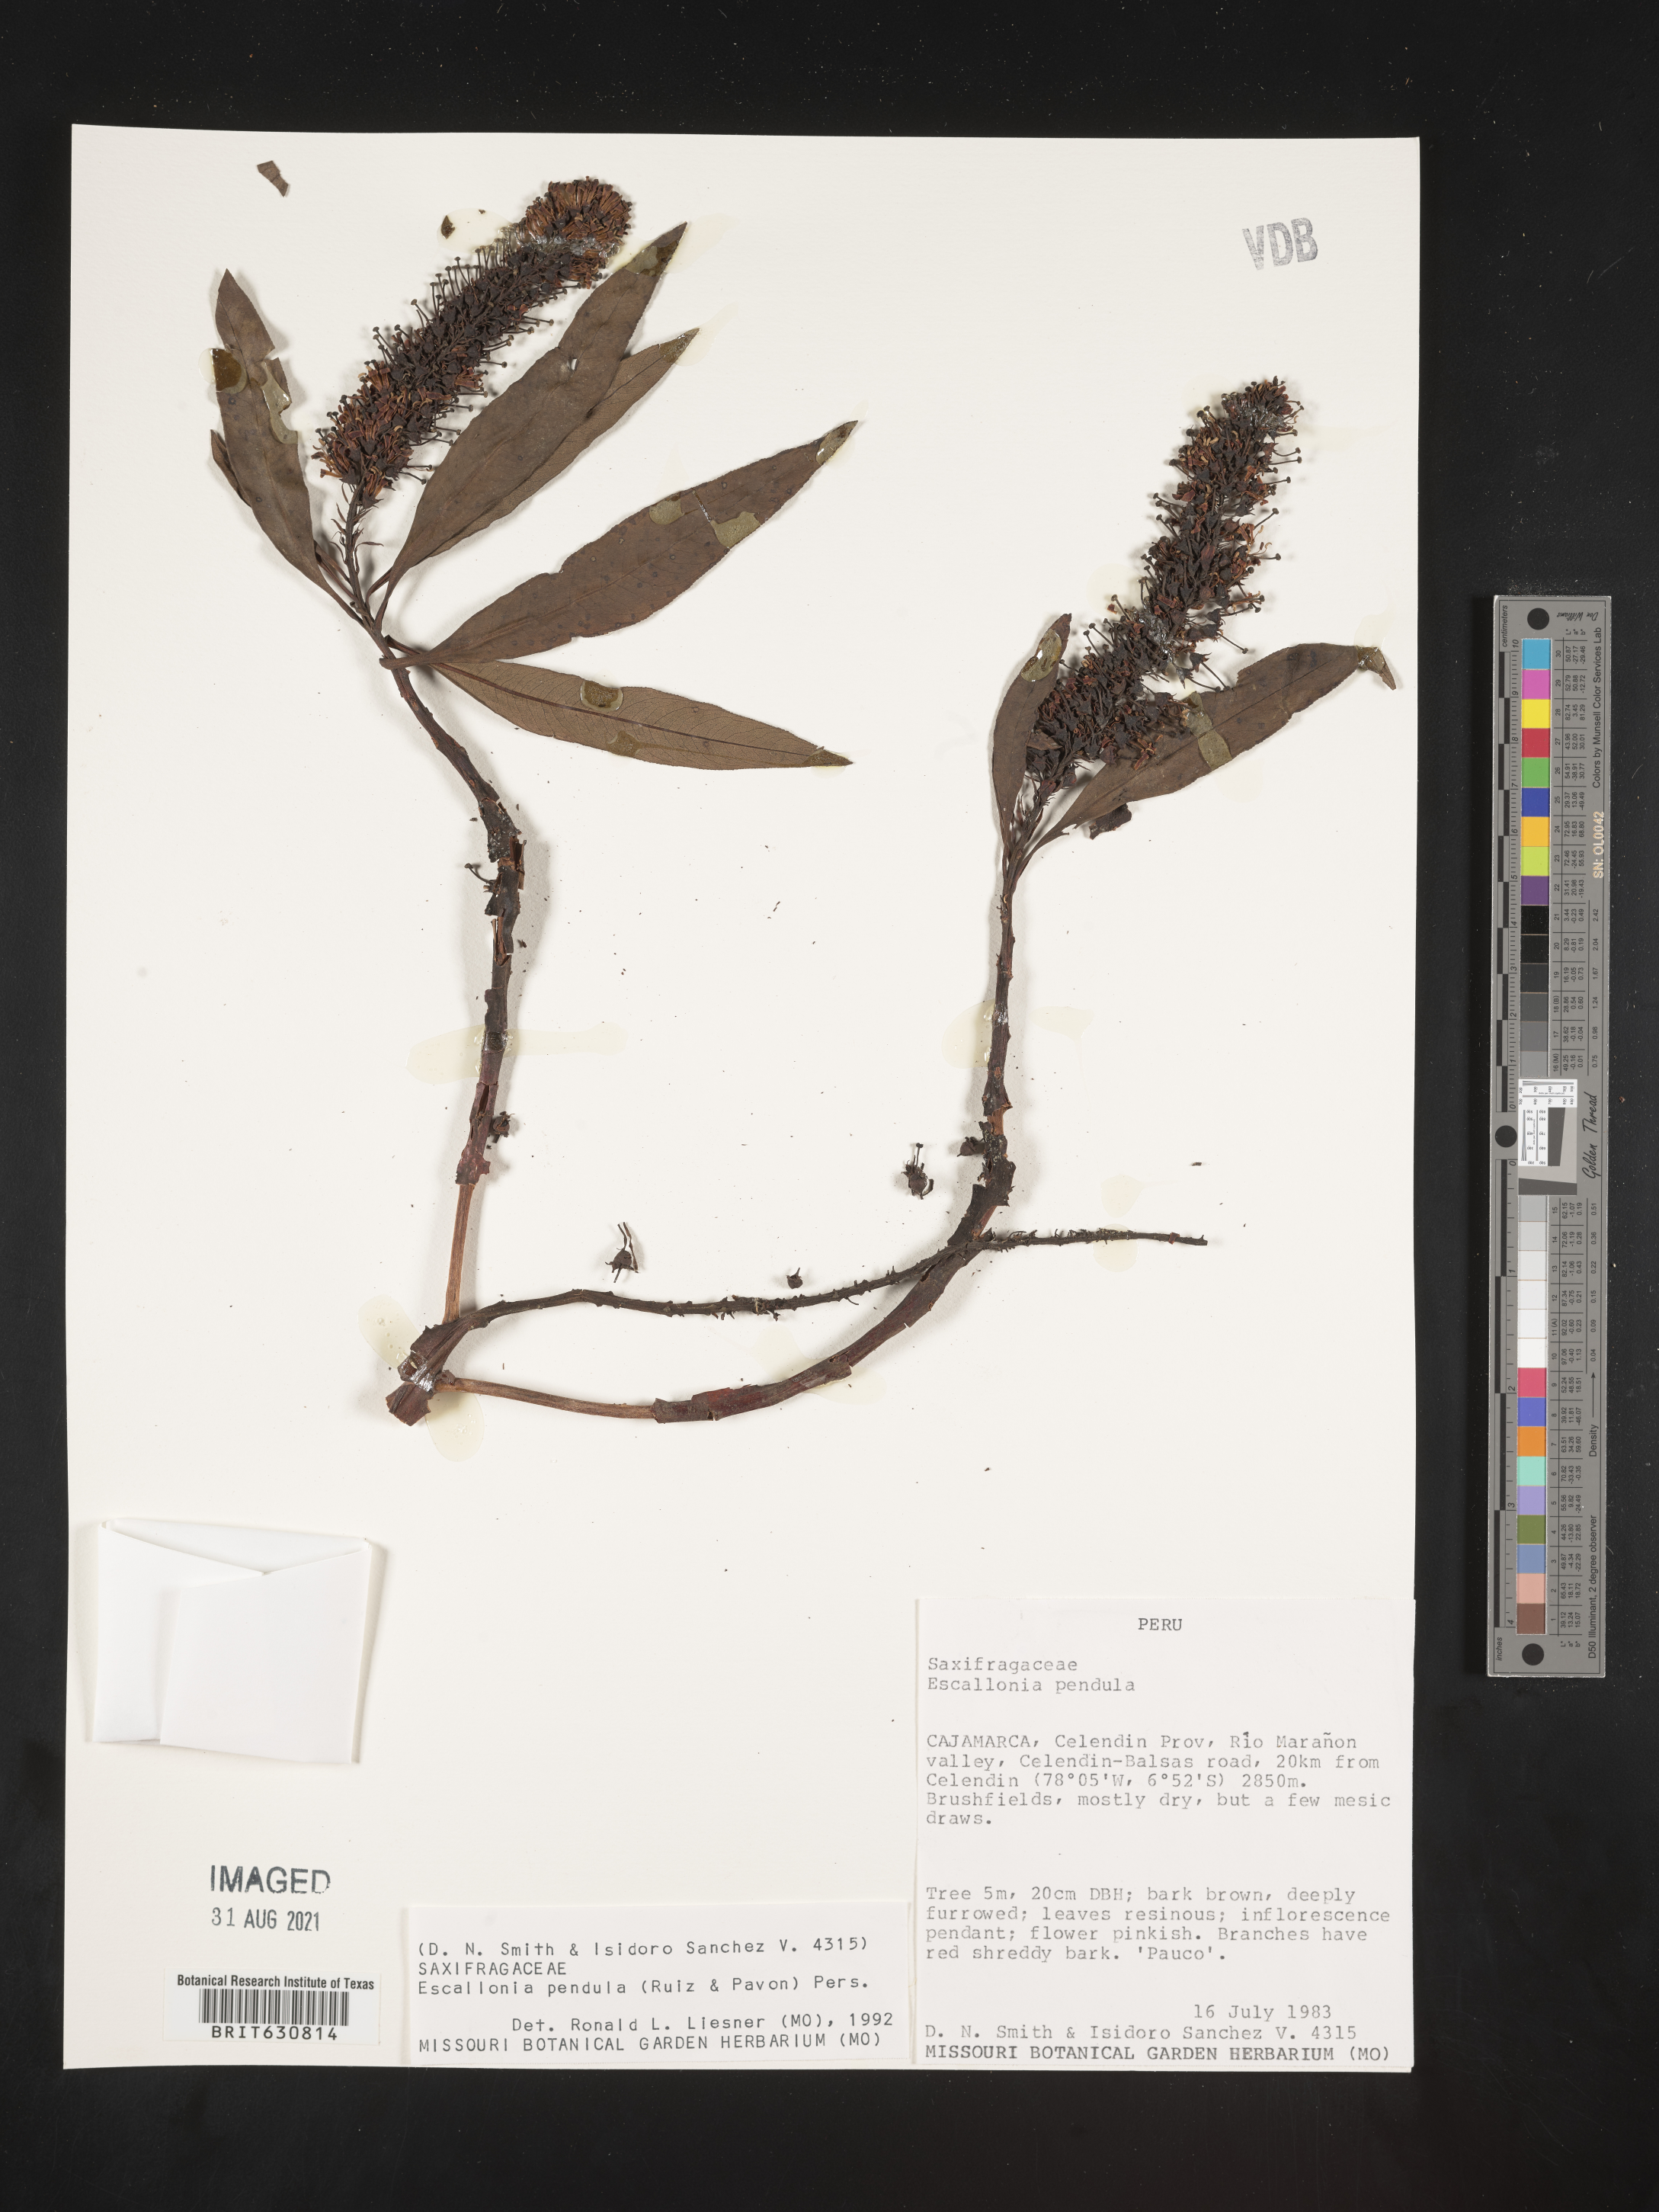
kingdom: Plantae
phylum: Tracheophyta
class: Magnoliopsida
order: Escalloniales
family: Escalloniaceae
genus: Escallonia
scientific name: Escallonia
